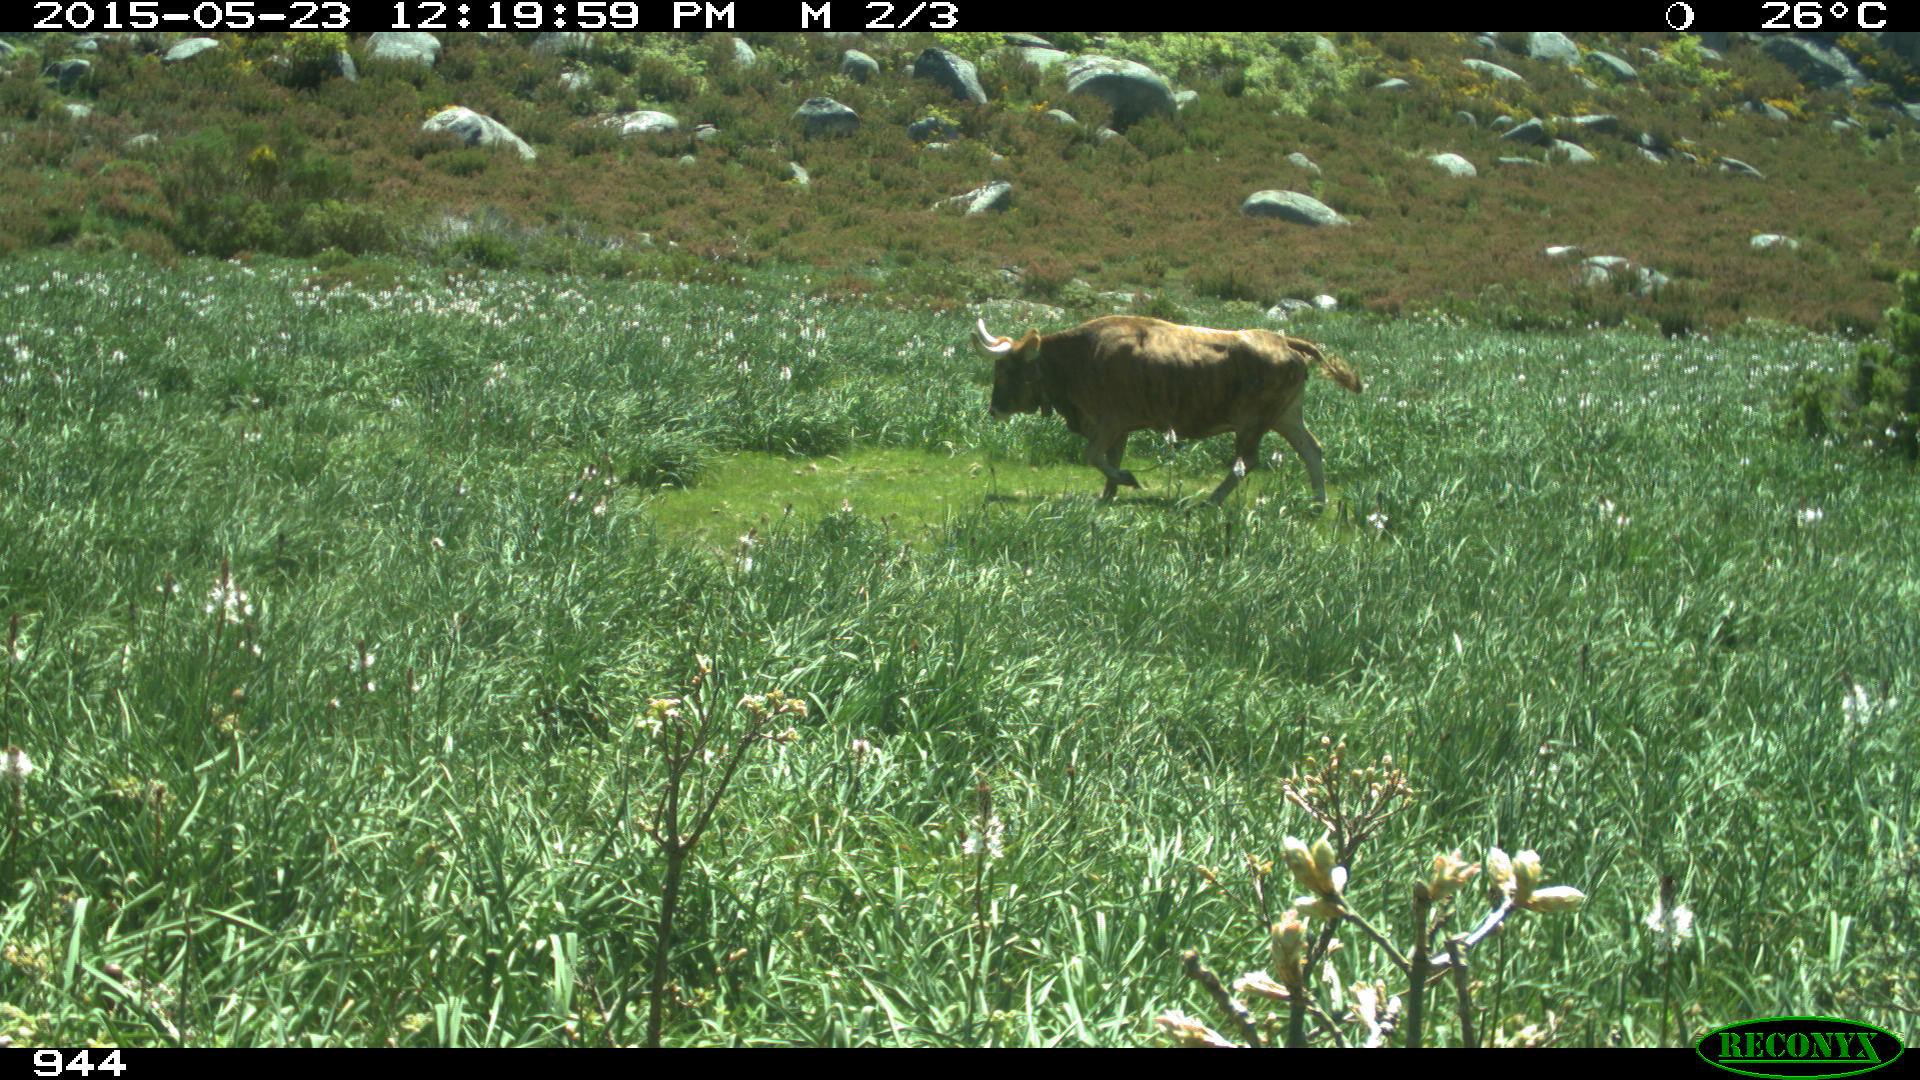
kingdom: Animalia
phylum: Chordata
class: Mammalia
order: Artiodactyla
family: Bovidae
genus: Bos
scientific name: Bos taurus
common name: Domesticated cattle
